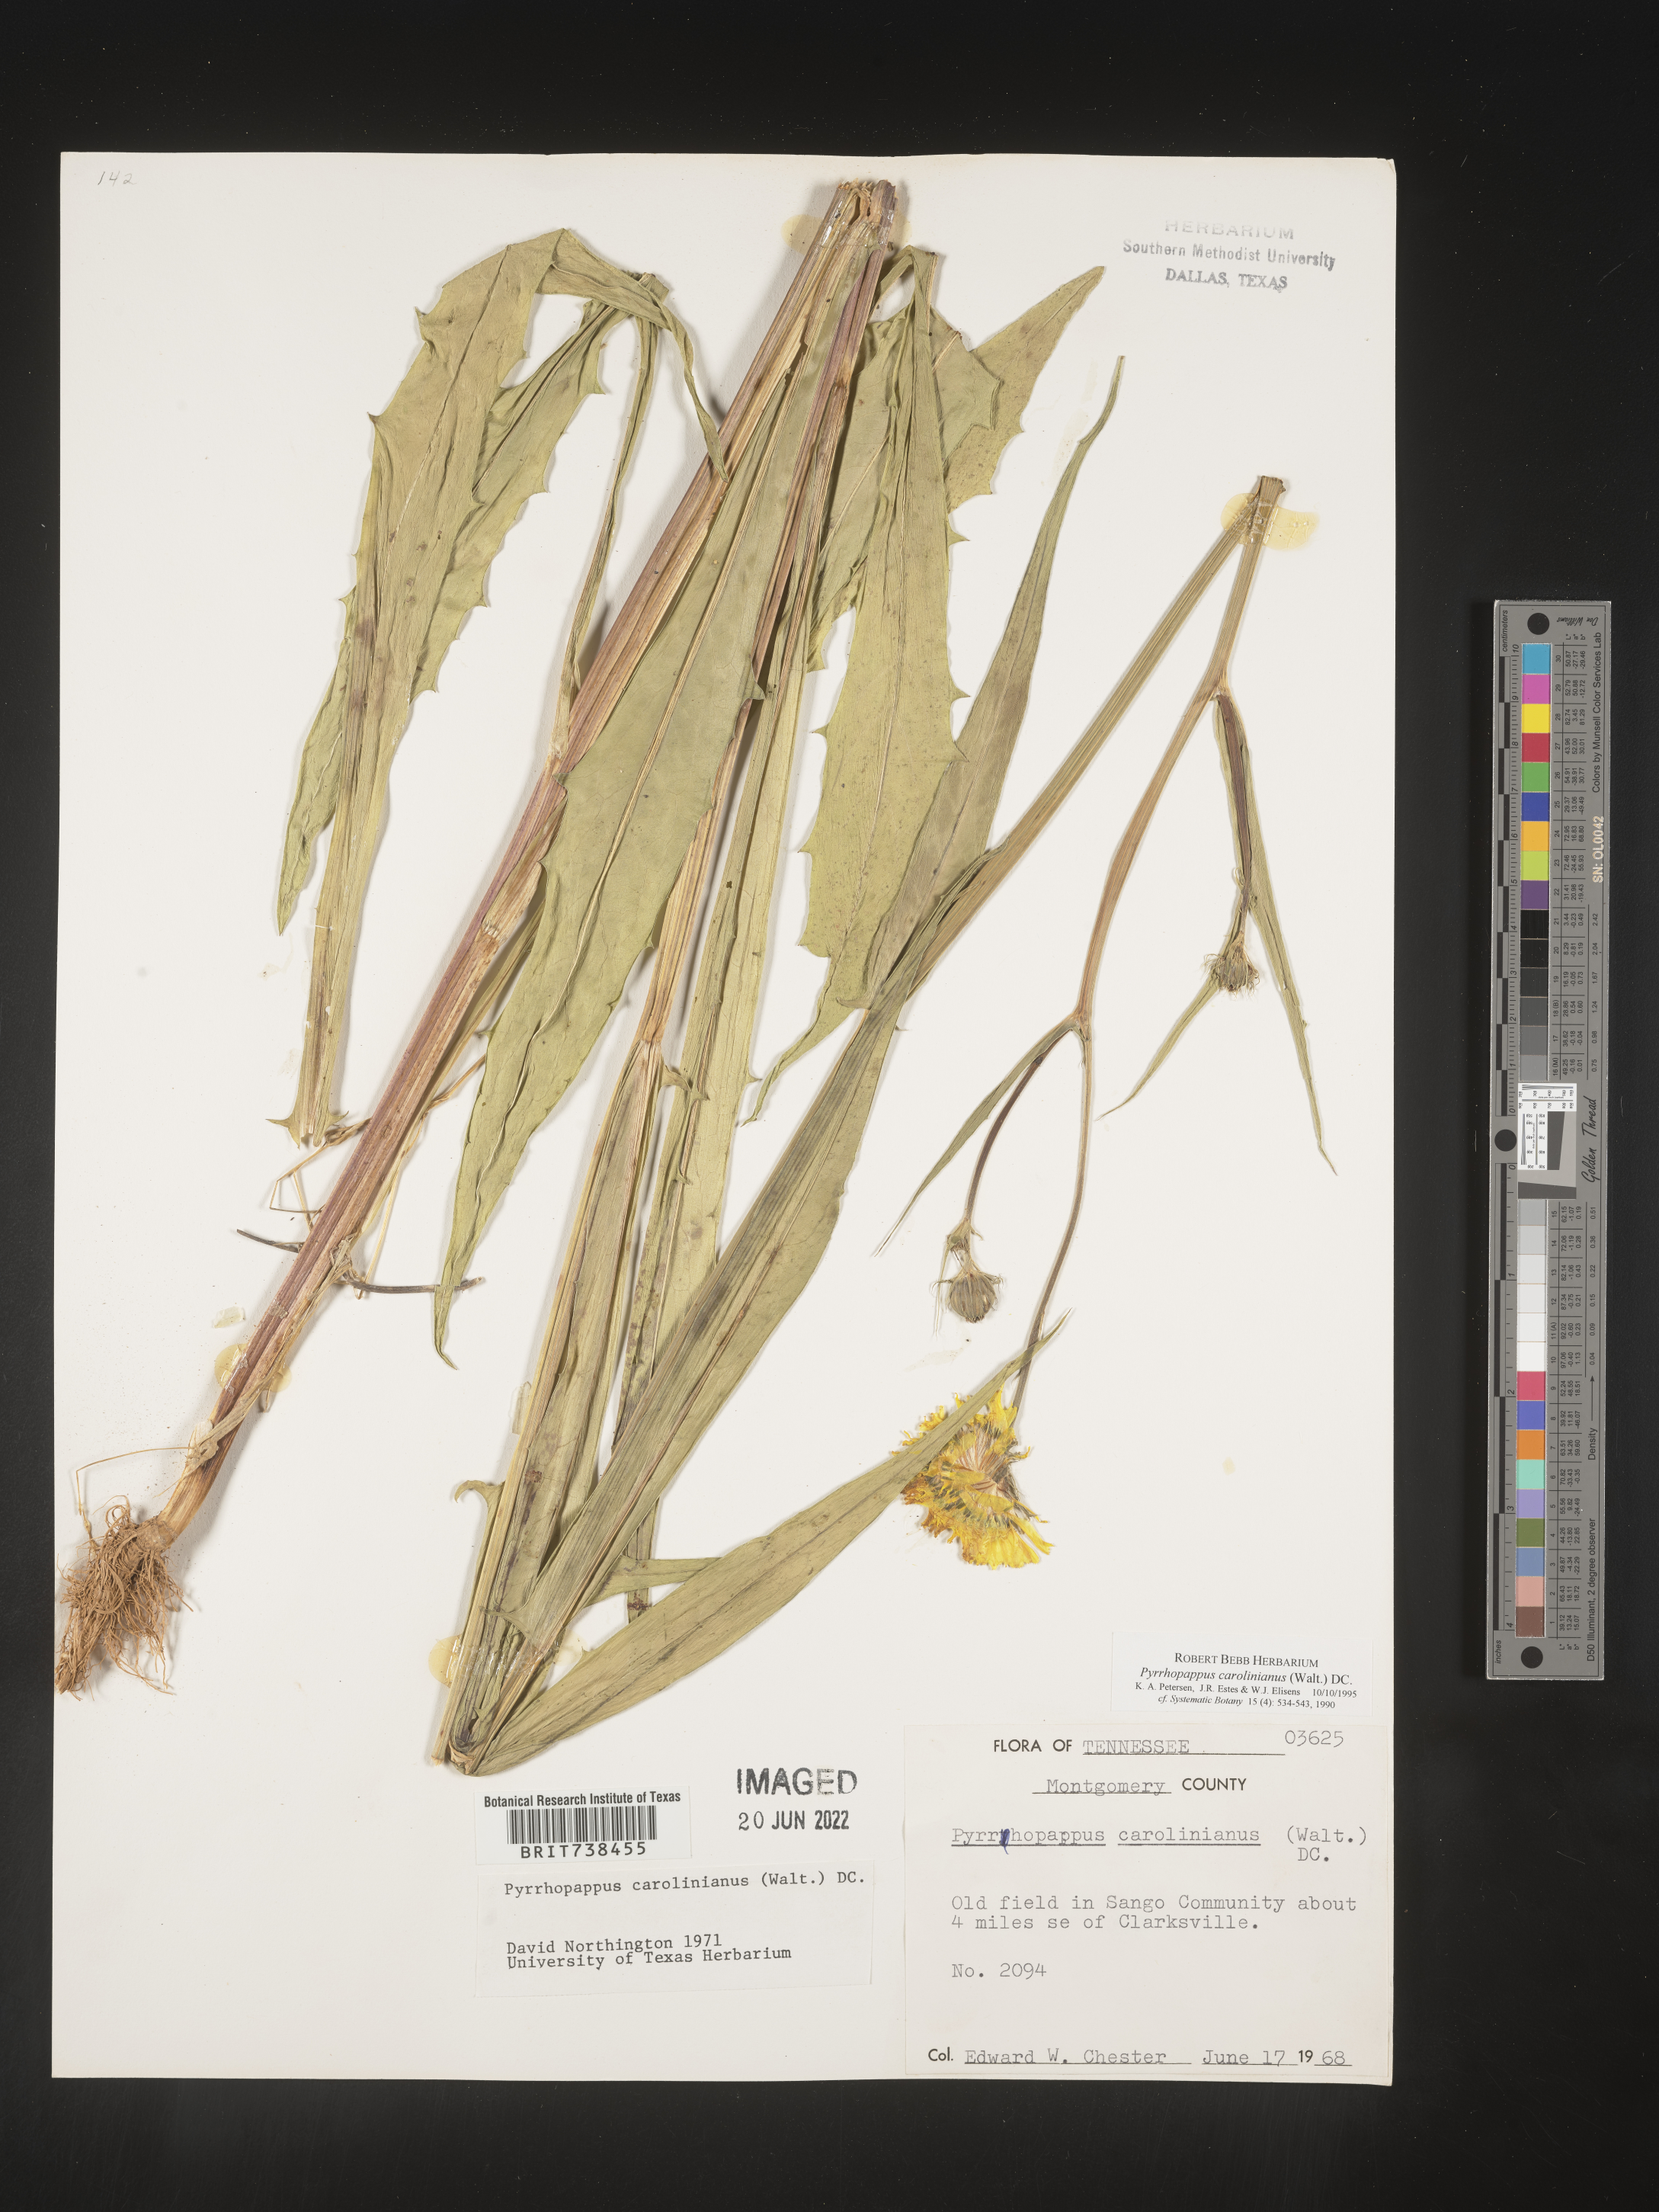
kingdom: Plantae
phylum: Tracheophyta
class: Magnoliopsida
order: Asterales
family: Asteraceae
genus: Pyrrhopappus
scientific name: Pyrrhopappus carolinianus
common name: Carolina desert-chicory
